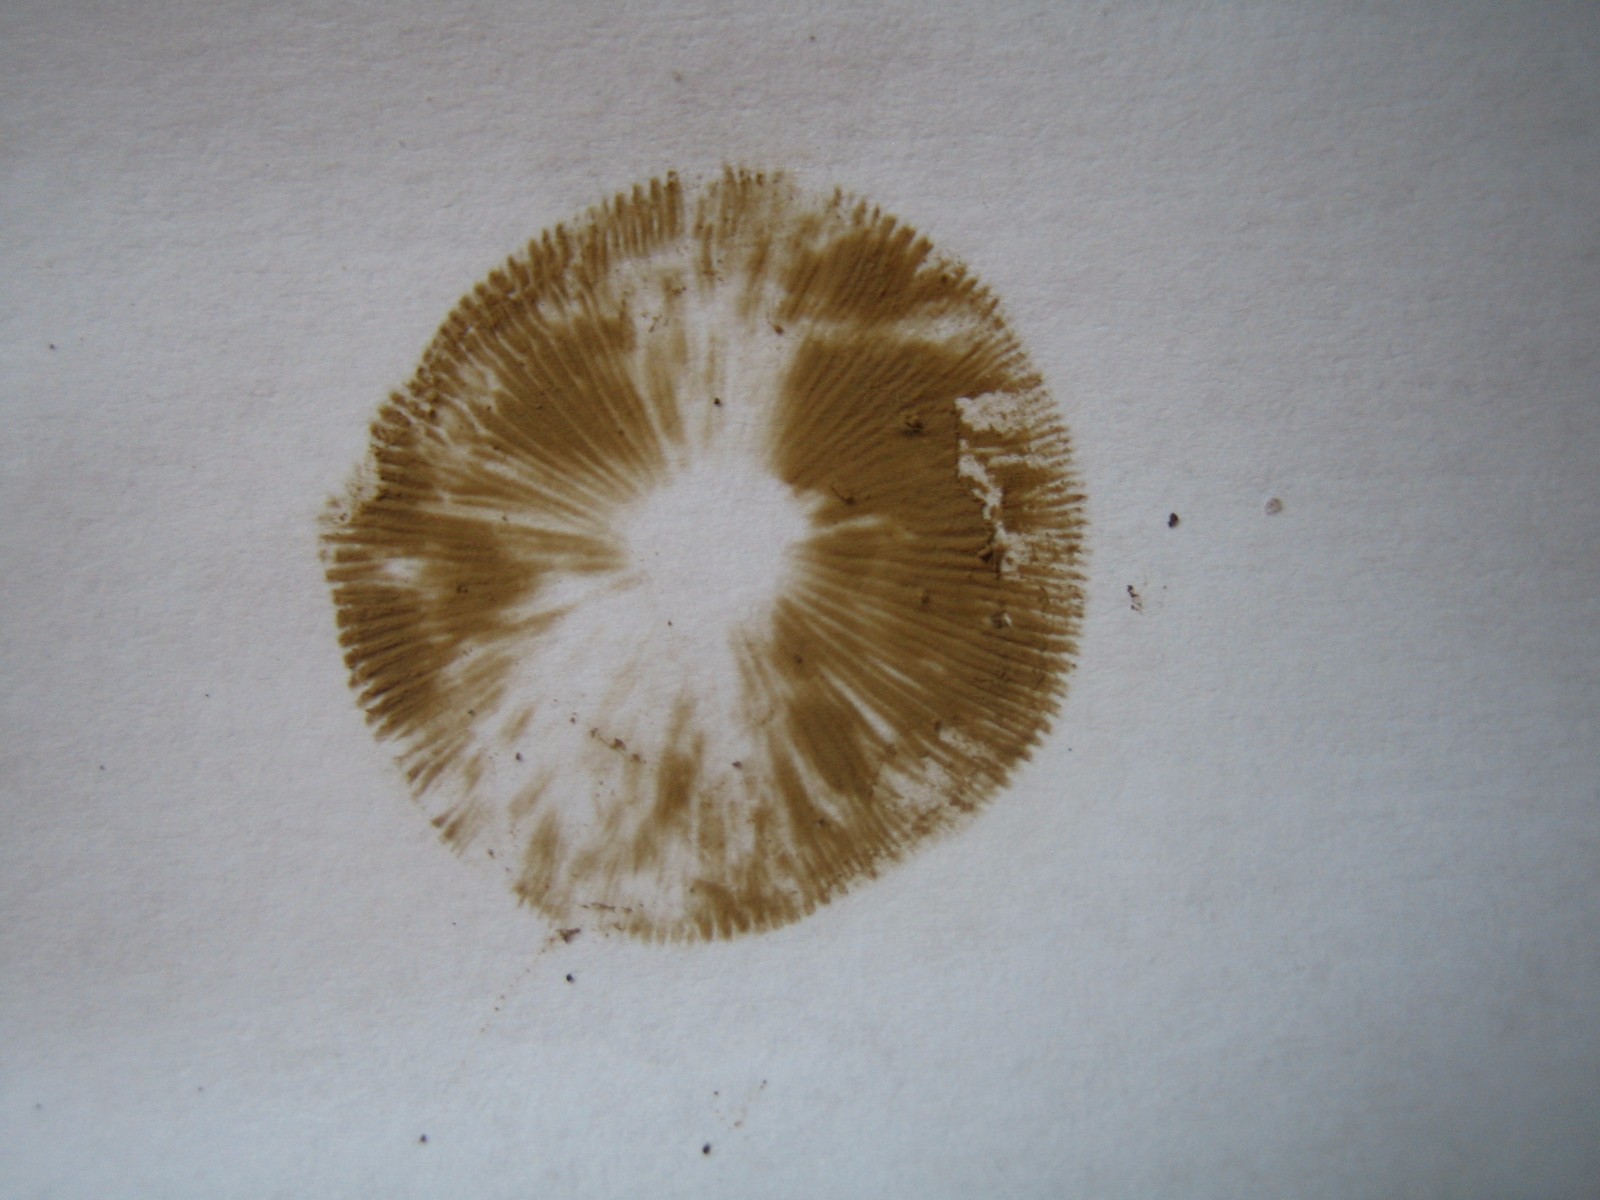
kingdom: Fungi
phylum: Basidiomycota
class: Agaricomycetes
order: Agaricales
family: Hymenogastraceae
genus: Hebeloma
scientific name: Hebeloma mesophaeum
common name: lerbrun tåreblad
